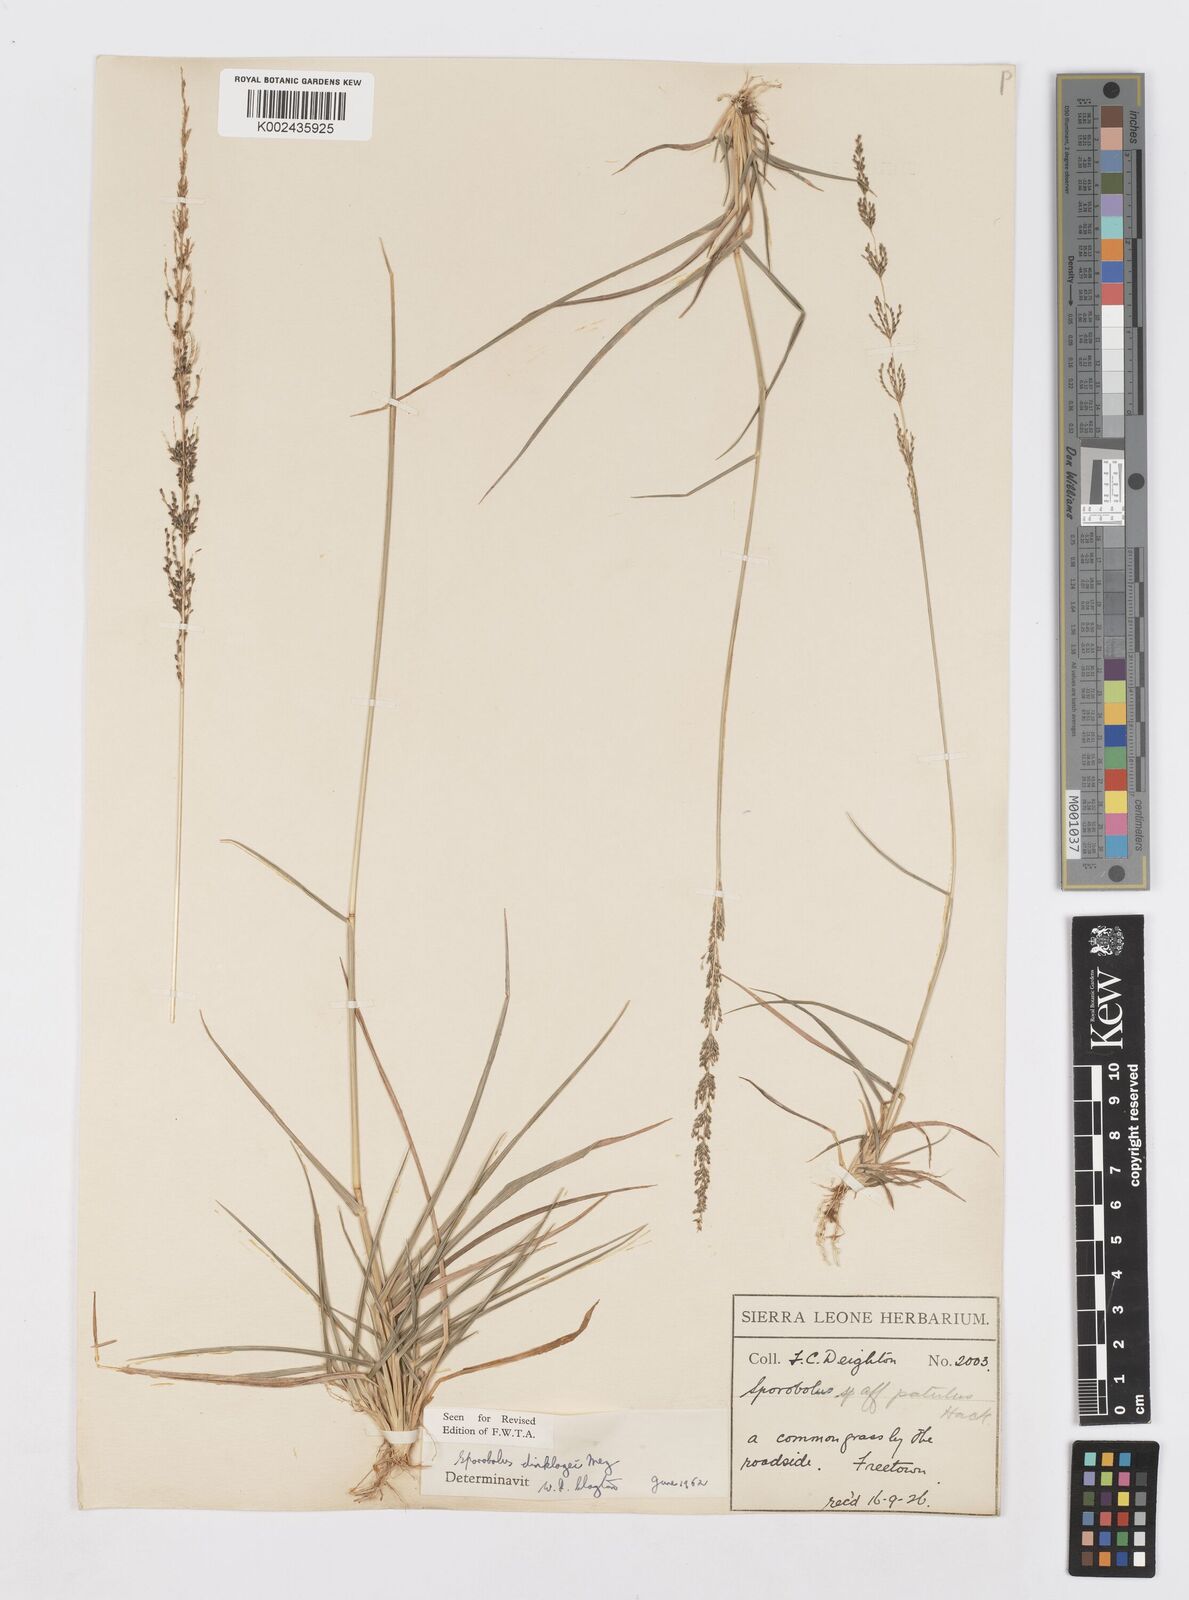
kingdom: Plantae
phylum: Tracheophyta
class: Liliopsida
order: Poales
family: Poaceae
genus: Sporobolus
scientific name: Sporobolus dinklagei
